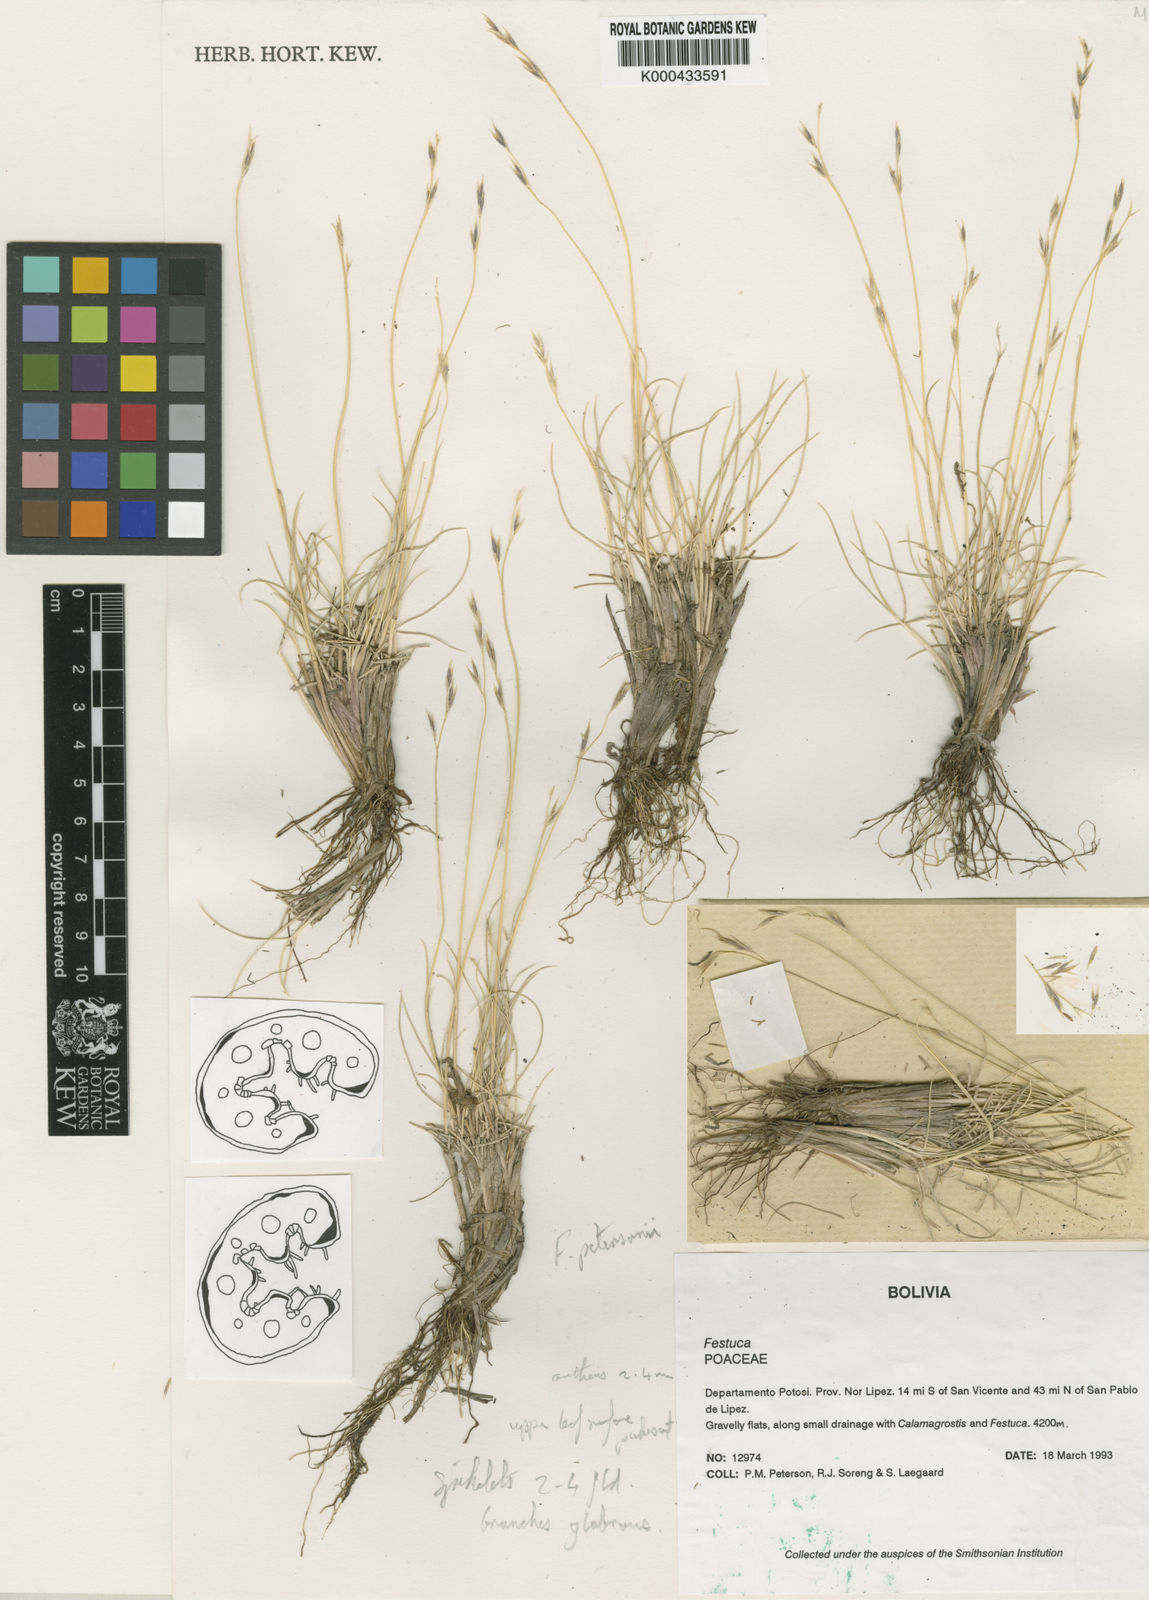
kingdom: Plantae
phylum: Tracheophyta
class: Liliopsida
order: Poales
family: Poaceae
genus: Festuca
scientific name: Festuca rigescens
